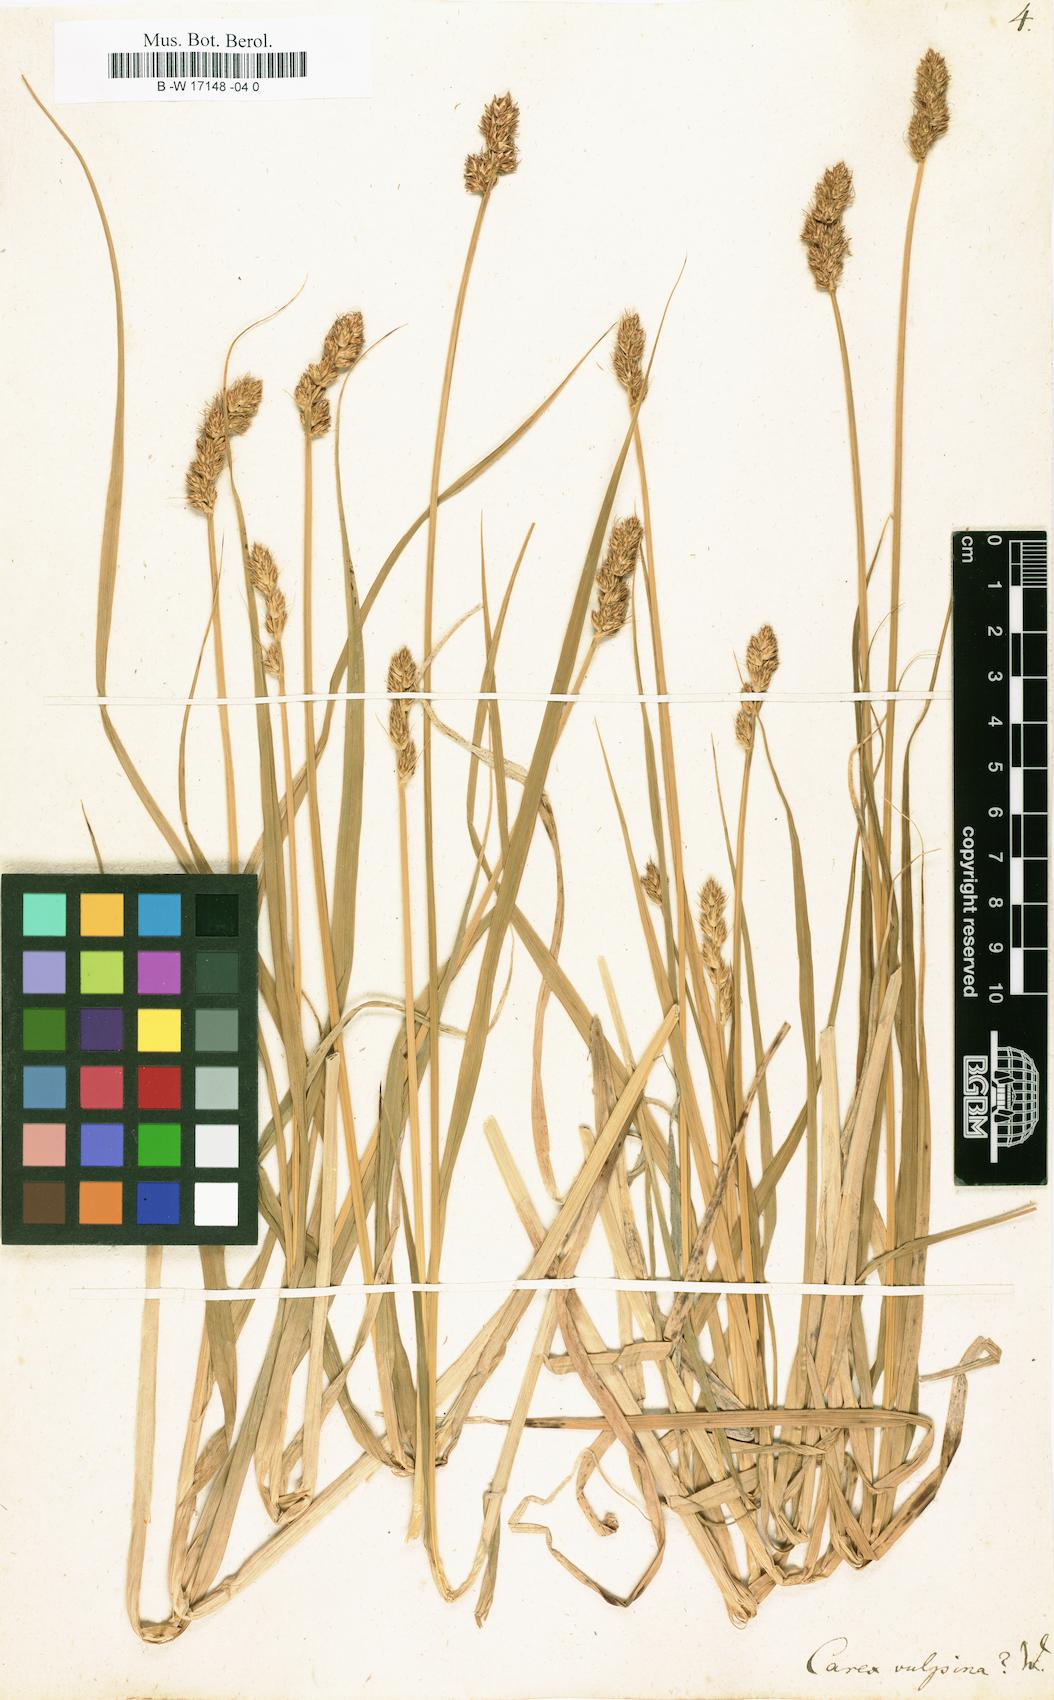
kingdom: Plantae
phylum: Tracheophyta
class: Liliopsida
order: Poales
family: Cyperaceae
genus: Carex
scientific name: Carex vulpina
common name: True fox-sedge
